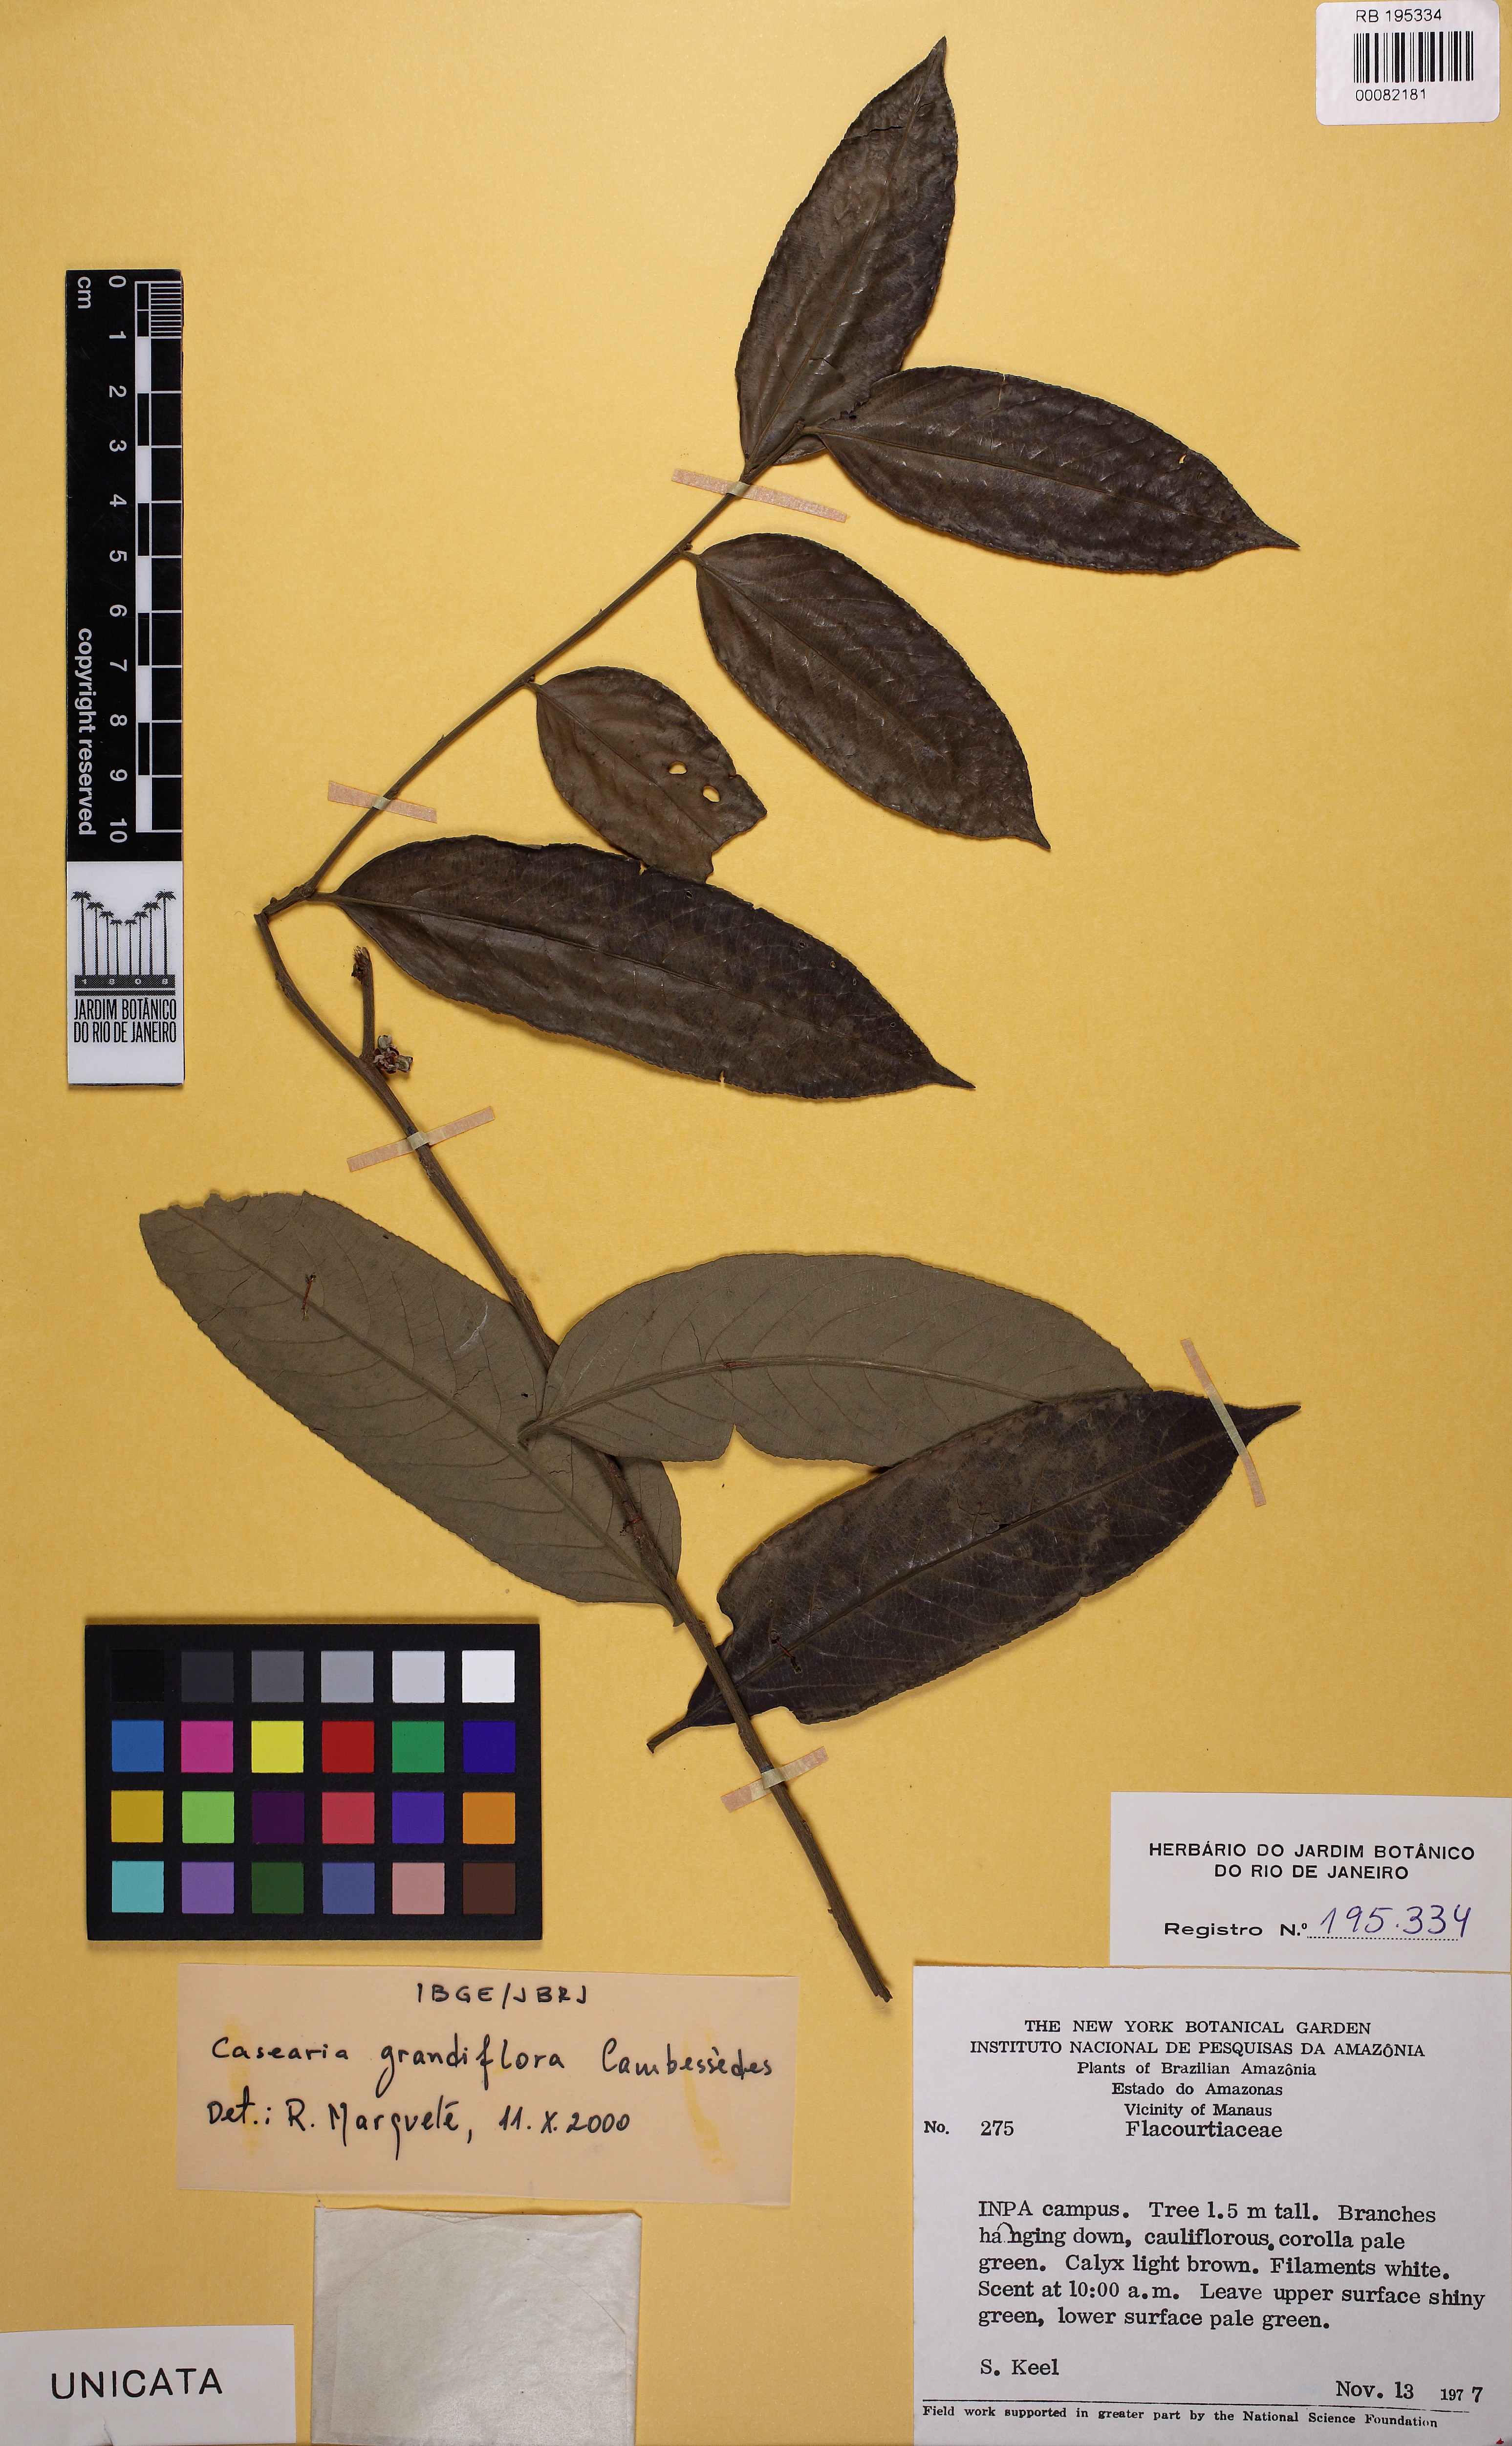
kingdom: Plantae
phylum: Tracheophyta
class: Magnoliopsida
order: Malpighiales
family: Salicaceae
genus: Casearia
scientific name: Casearia grandiflora
